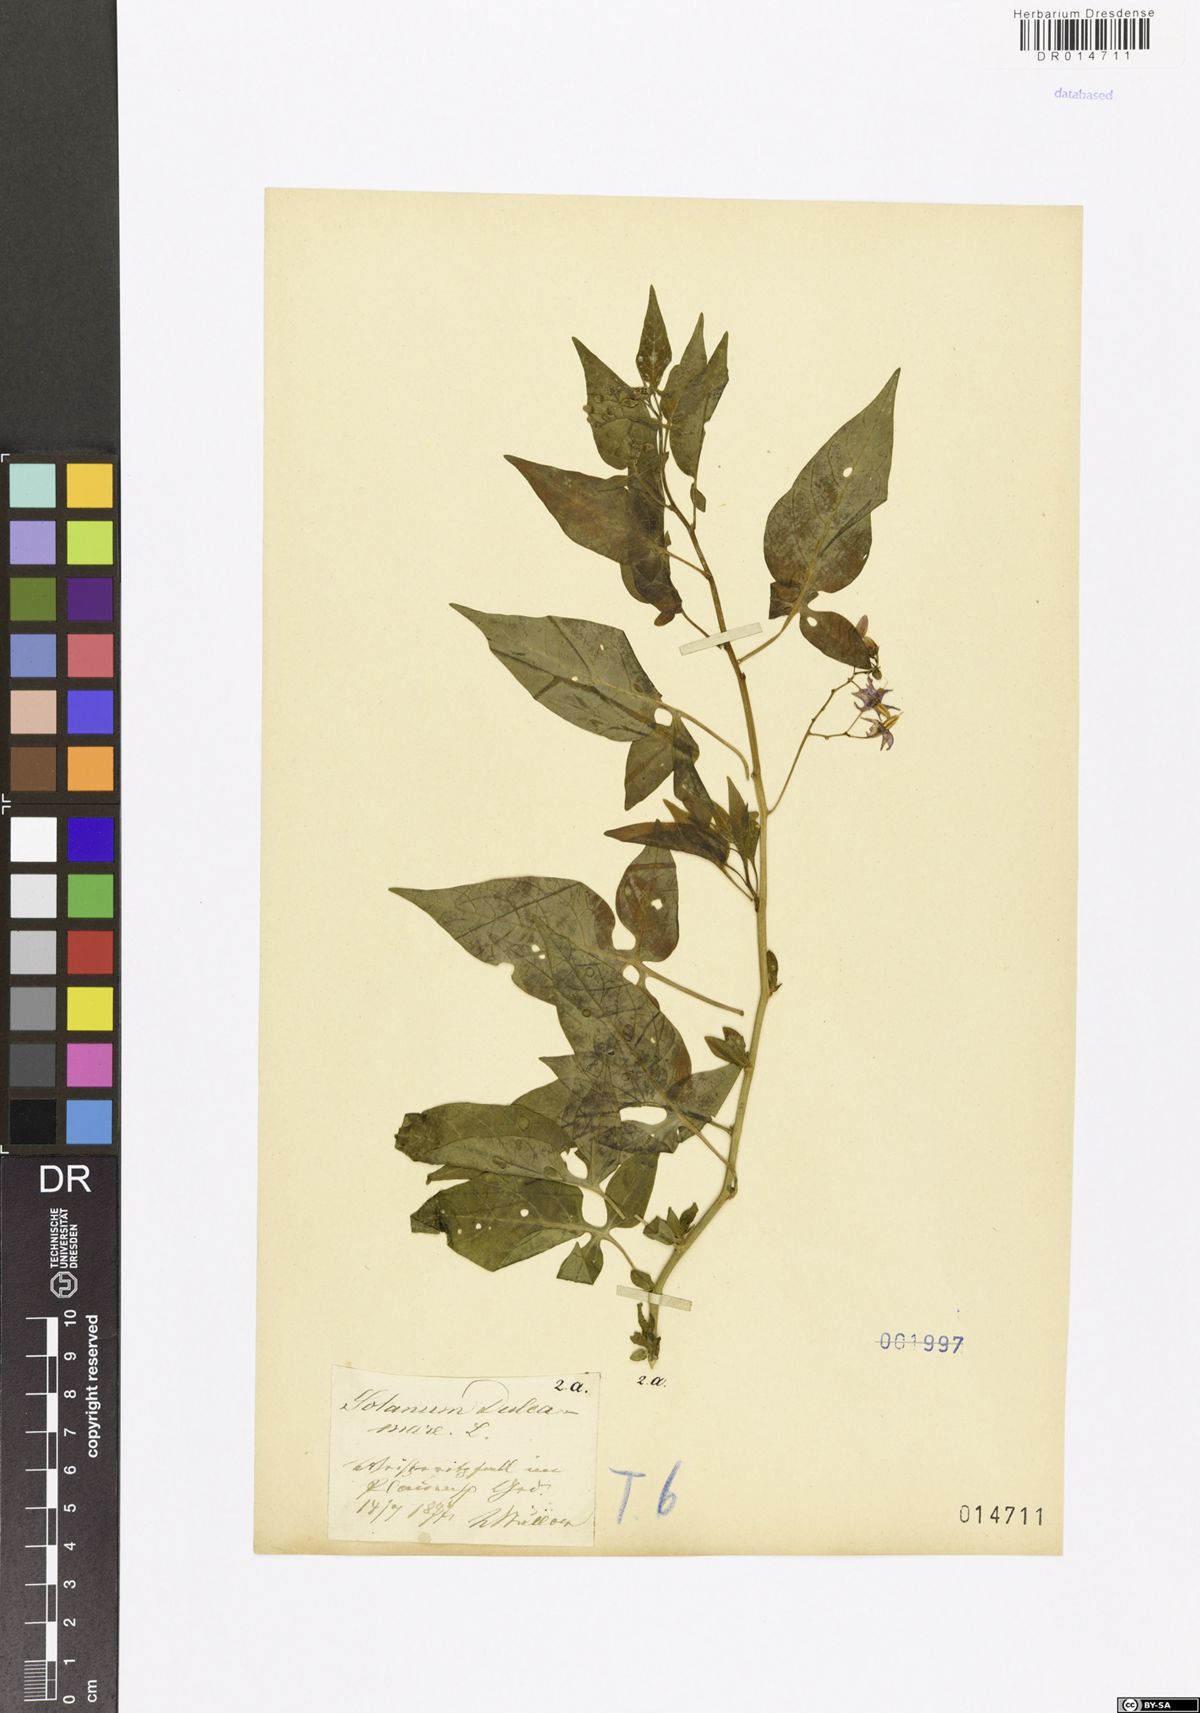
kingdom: Plantae
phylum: Tracheophyta
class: Magnoliopsida
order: Solanales
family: Solanaceae
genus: Solanum
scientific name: Solanum dulcamara
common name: Climbing nightshade
